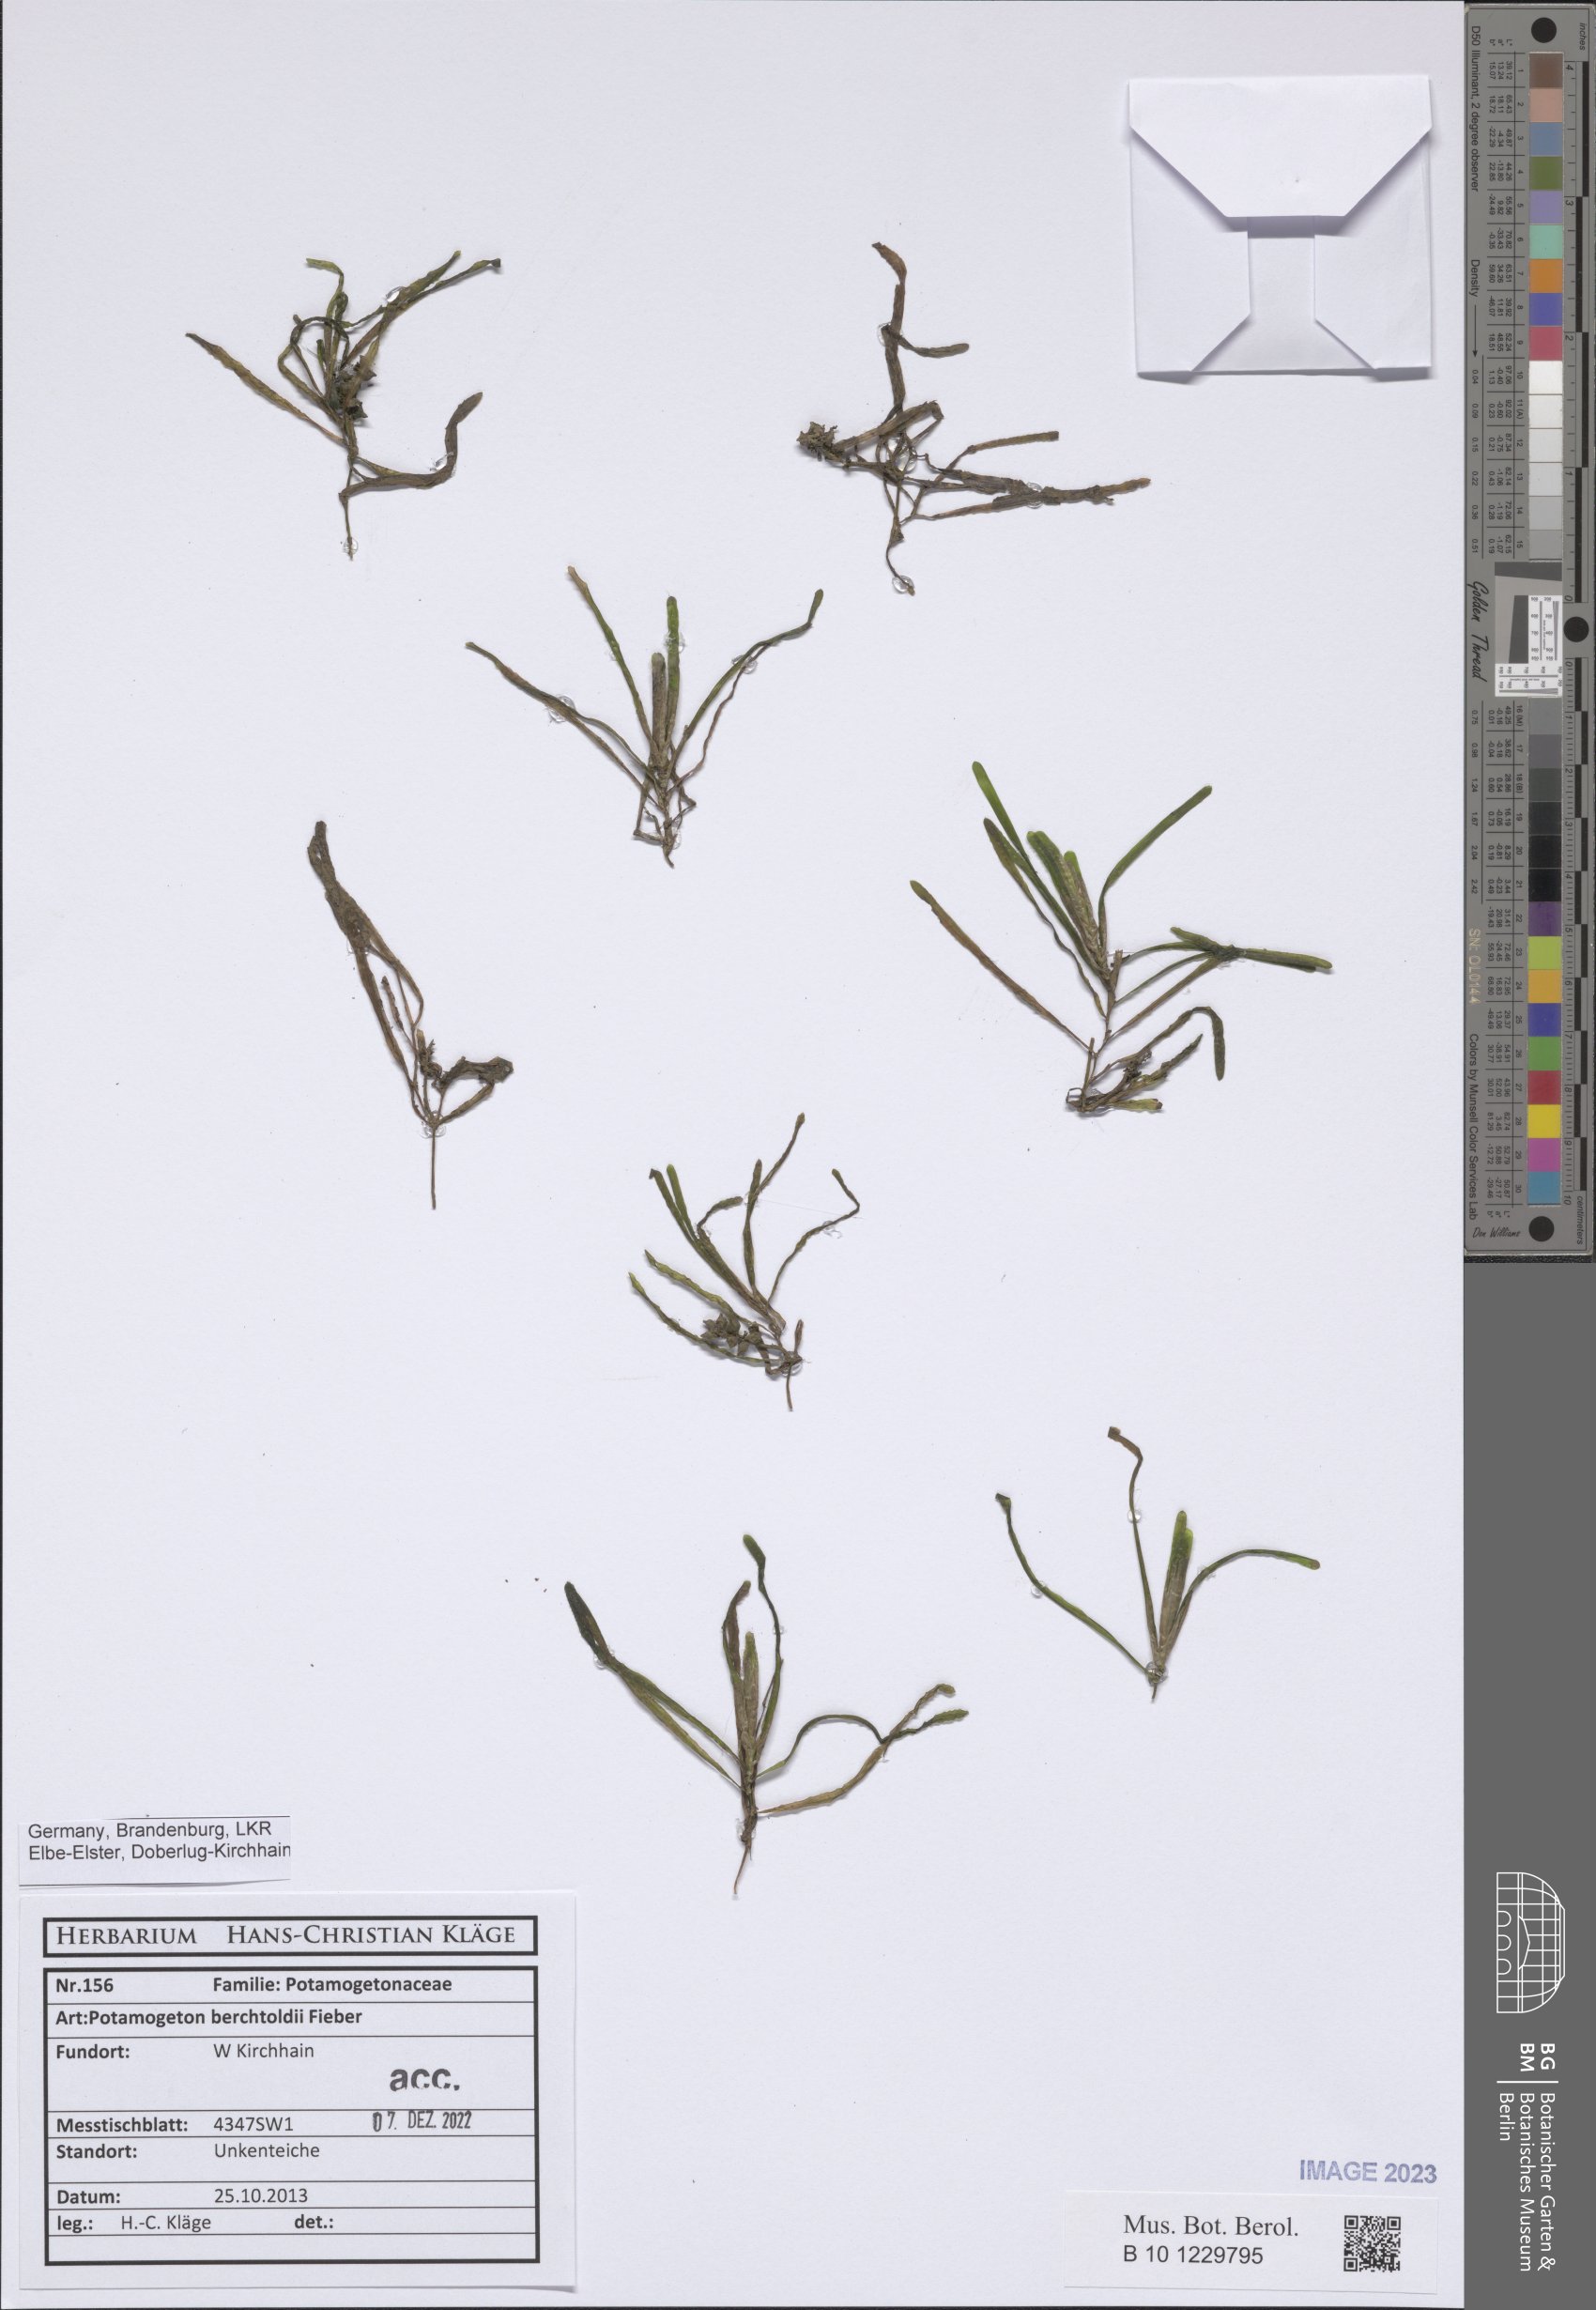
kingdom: Plantae
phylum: Tracheophyta
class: Liliopsida
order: Alismatales
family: Potamogetonaceae
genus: Potamogeton
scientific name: Potamogeton berchtoldii
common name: Small pondweed
